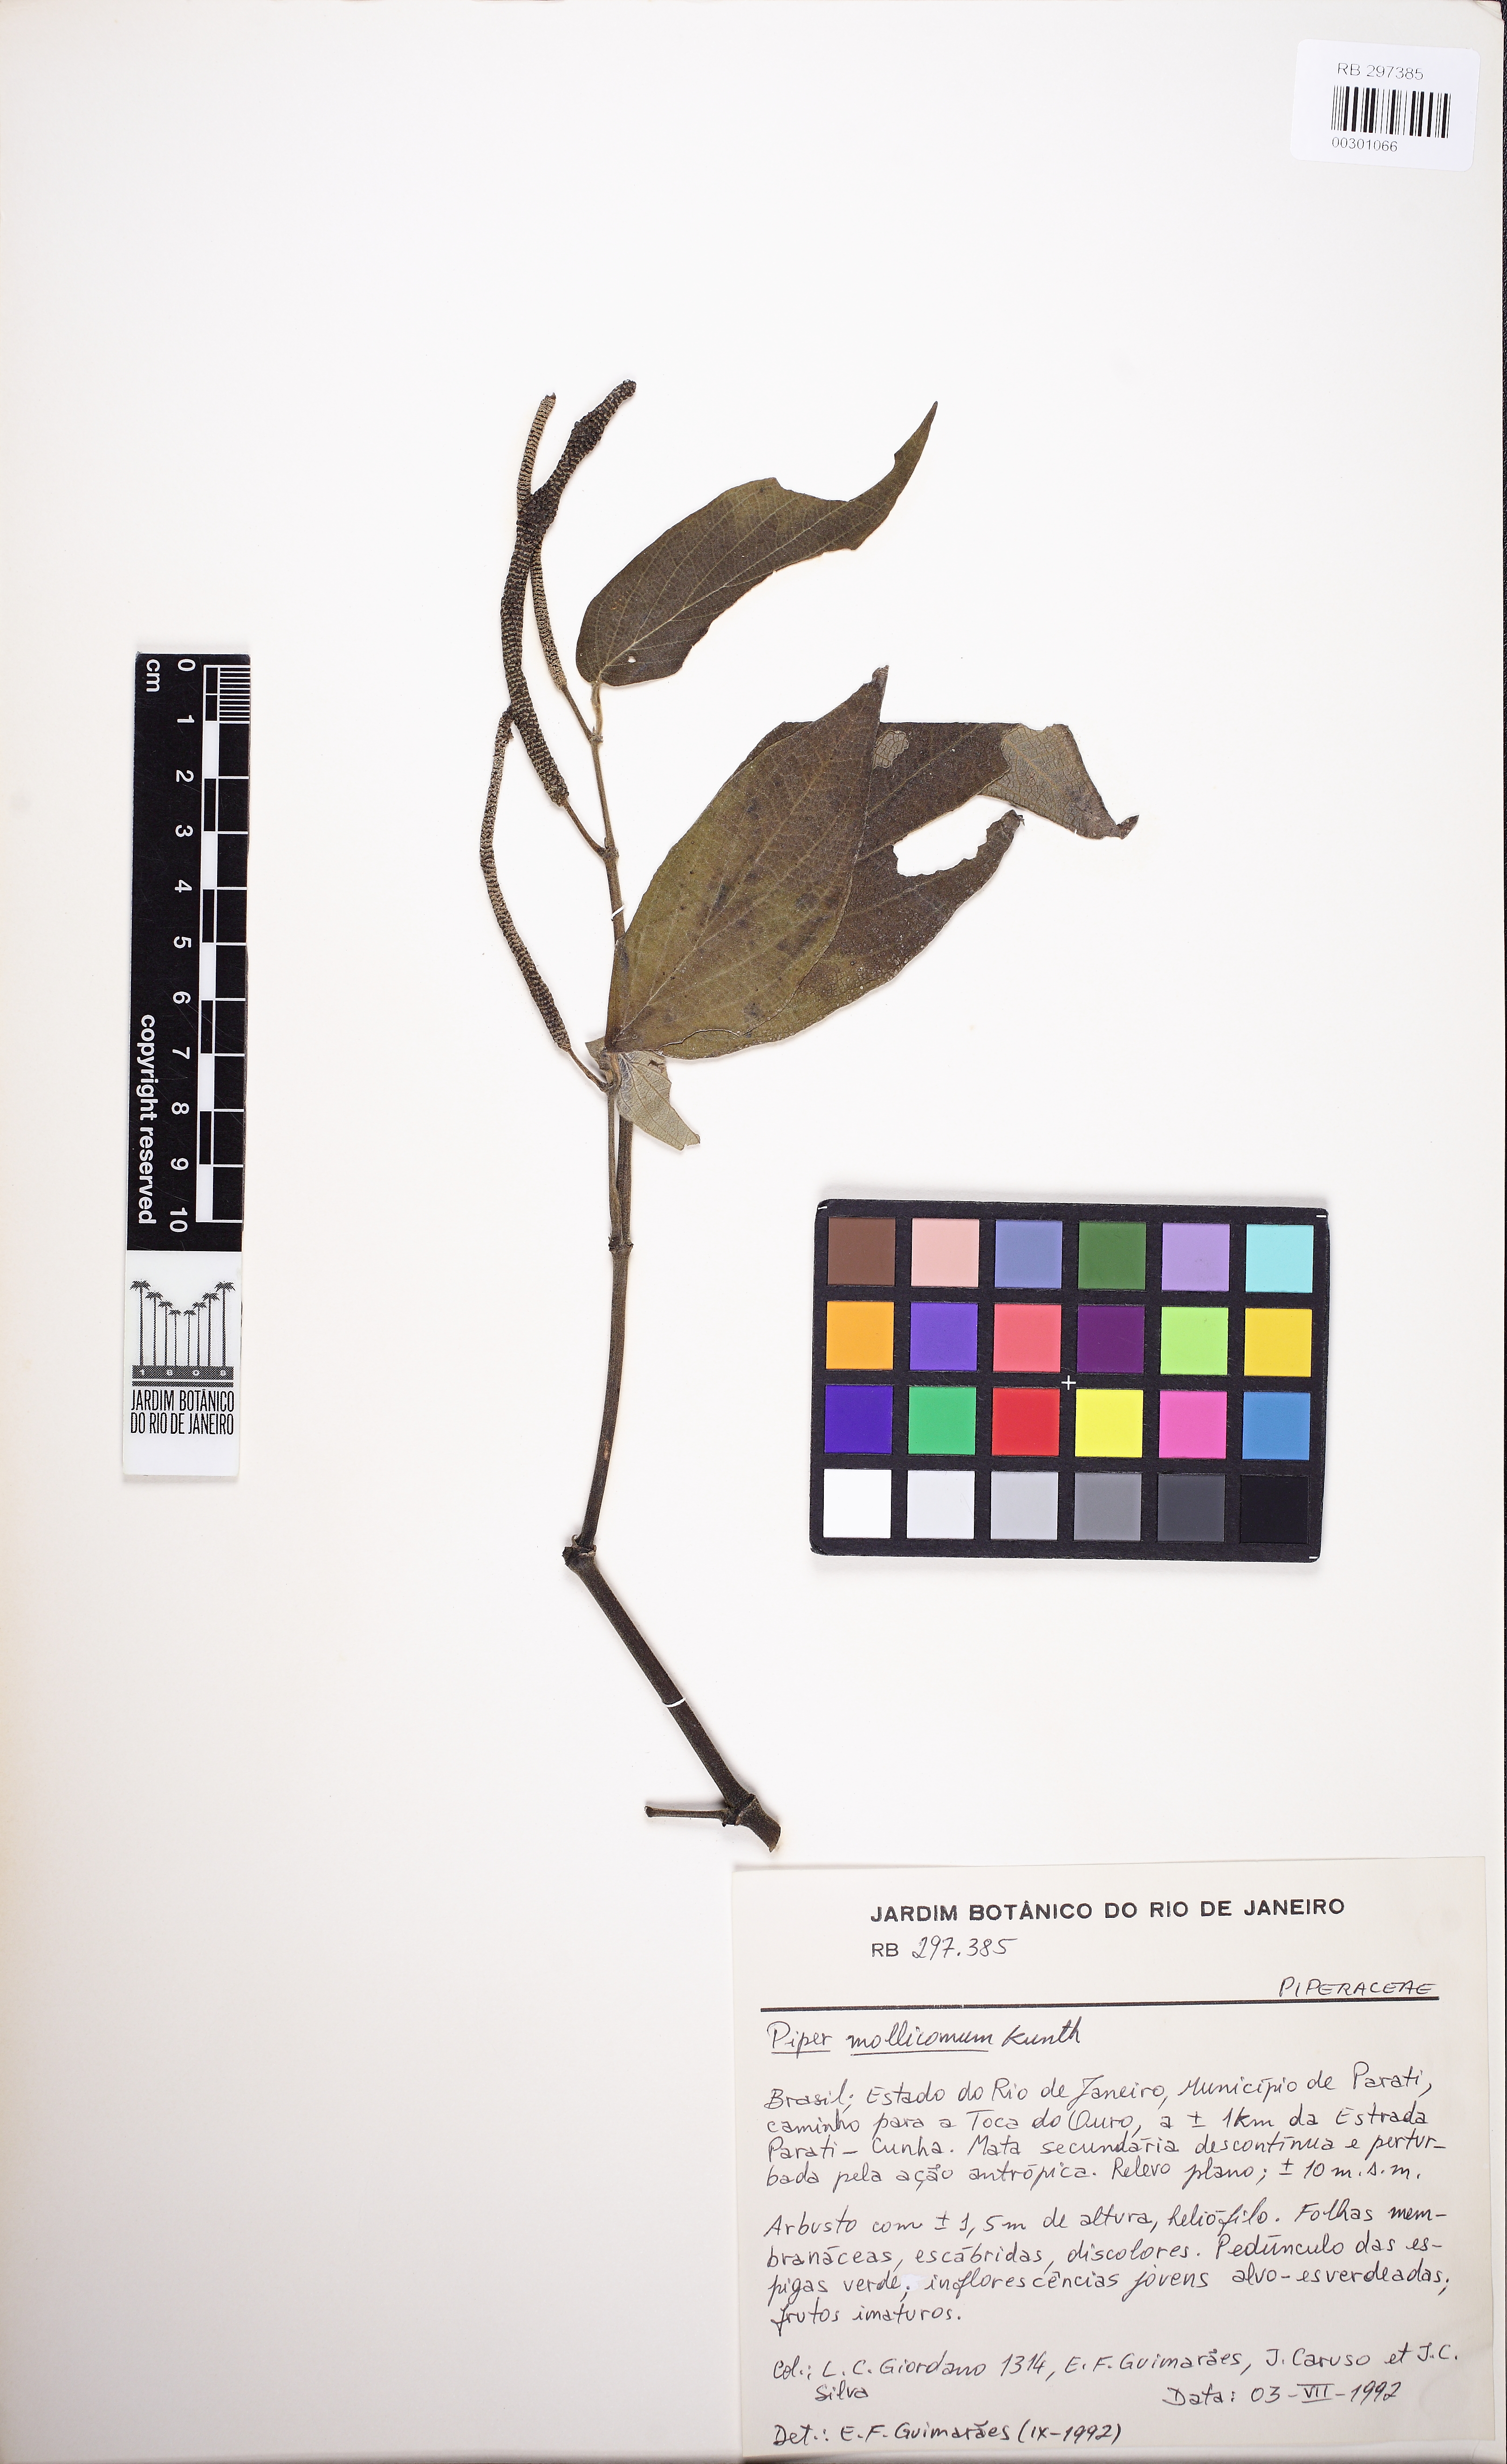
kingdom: Plantae
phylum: Tracheophyta
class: Magnoliopsida
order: Piperales
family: Piperaceae
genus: Piper
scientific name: Piper mollicomum
